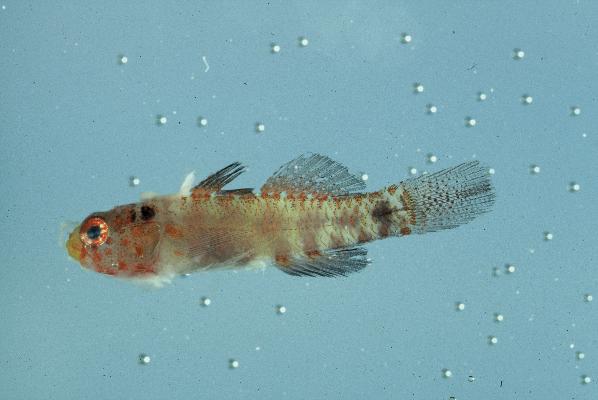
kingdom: Animalia
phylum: Chordata
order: Perciformes
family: Gobiidae
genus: Eviota
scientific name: Eviota notata
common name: Barhead dwarfgoby
